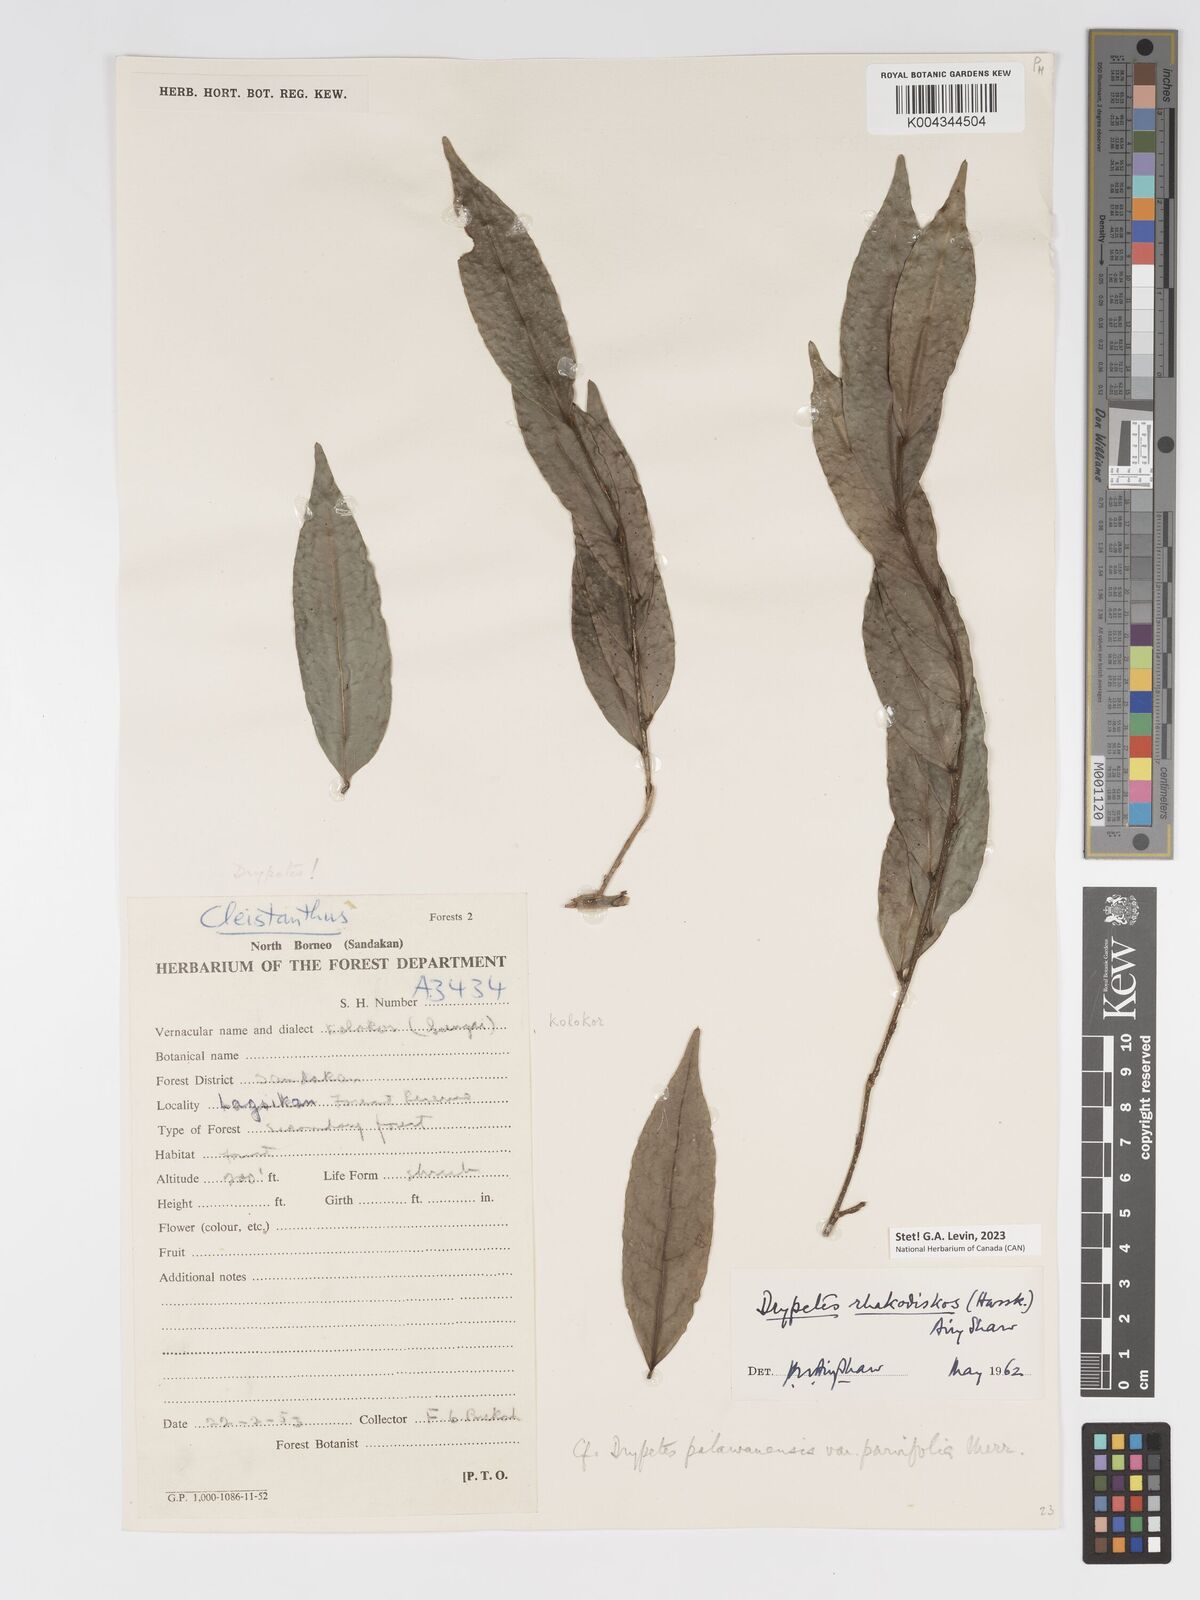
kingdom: Plantae
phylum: Tracheophyta
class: Magnoliopsida
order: Malpighiales
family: Putranjivaceae
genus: Drypetes
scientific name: Drypetes rhakodiskos
